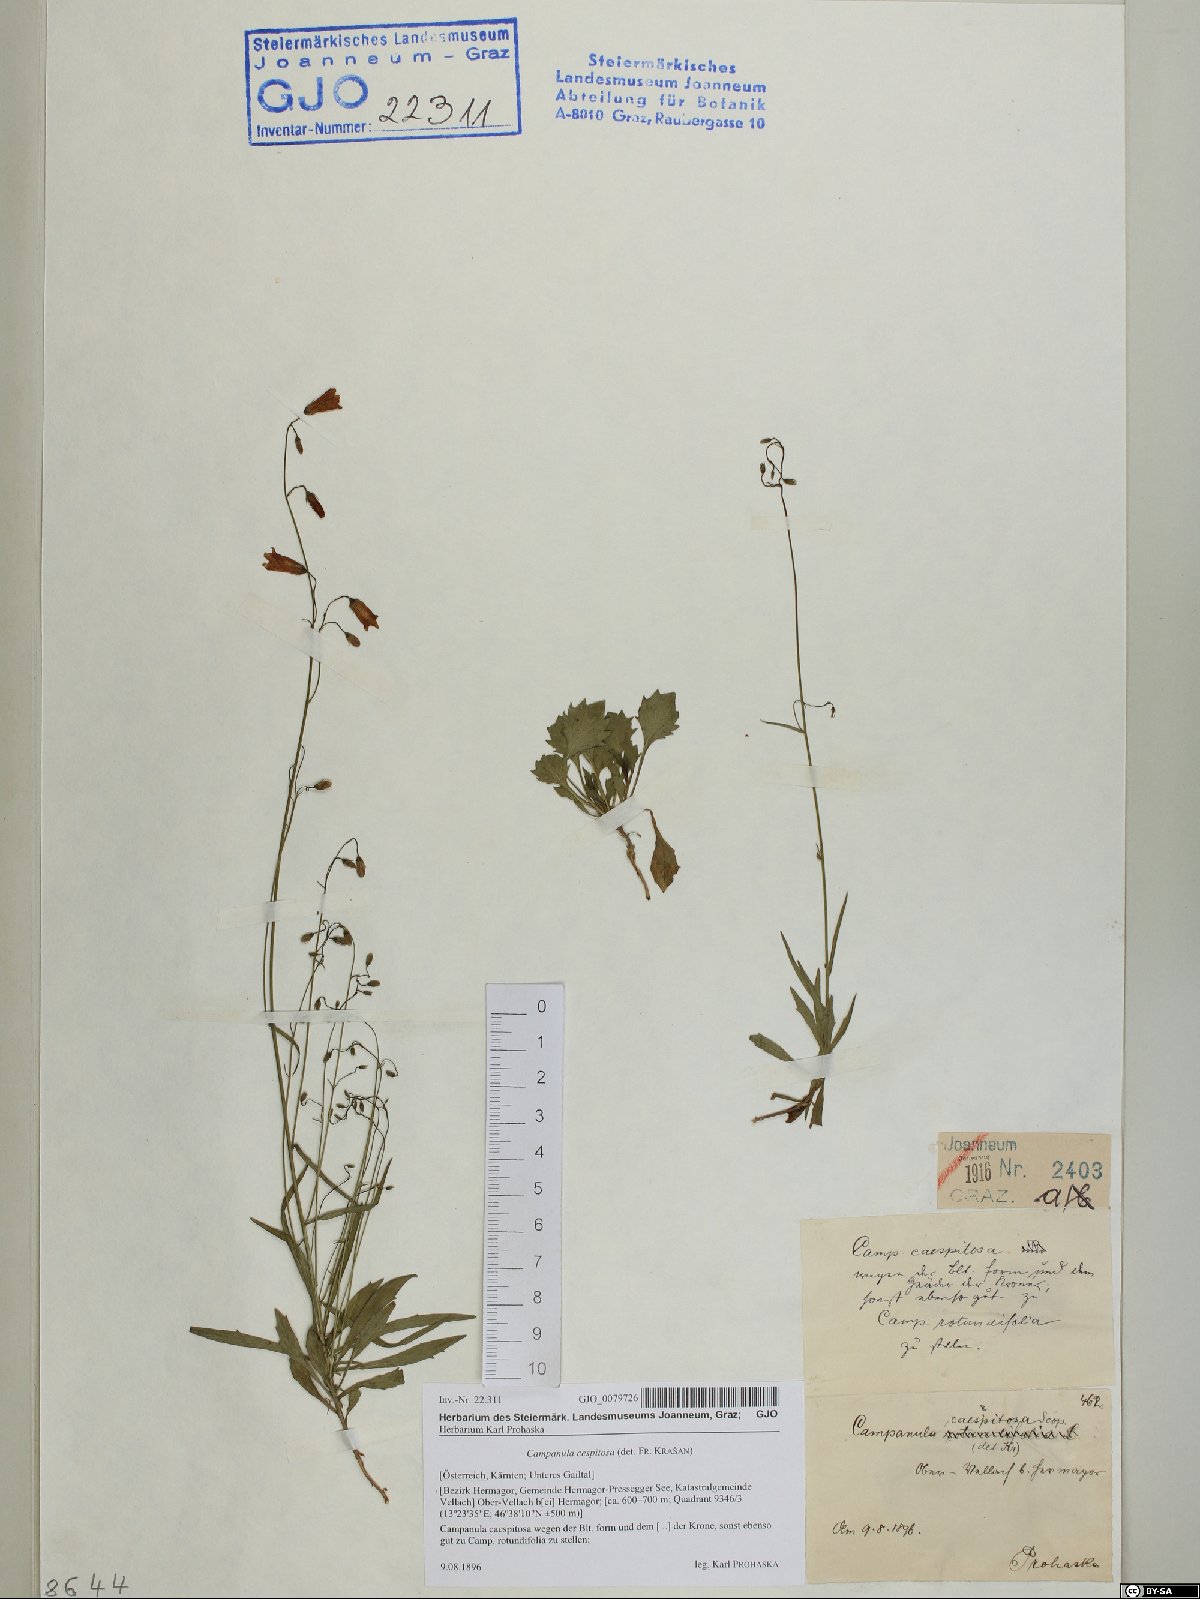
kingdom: Plantae
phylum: Tracheophyta
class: Magnoliopsida
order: Asterales
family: Campanulaceae
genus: Campanula
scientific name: Campanula cespitosa
